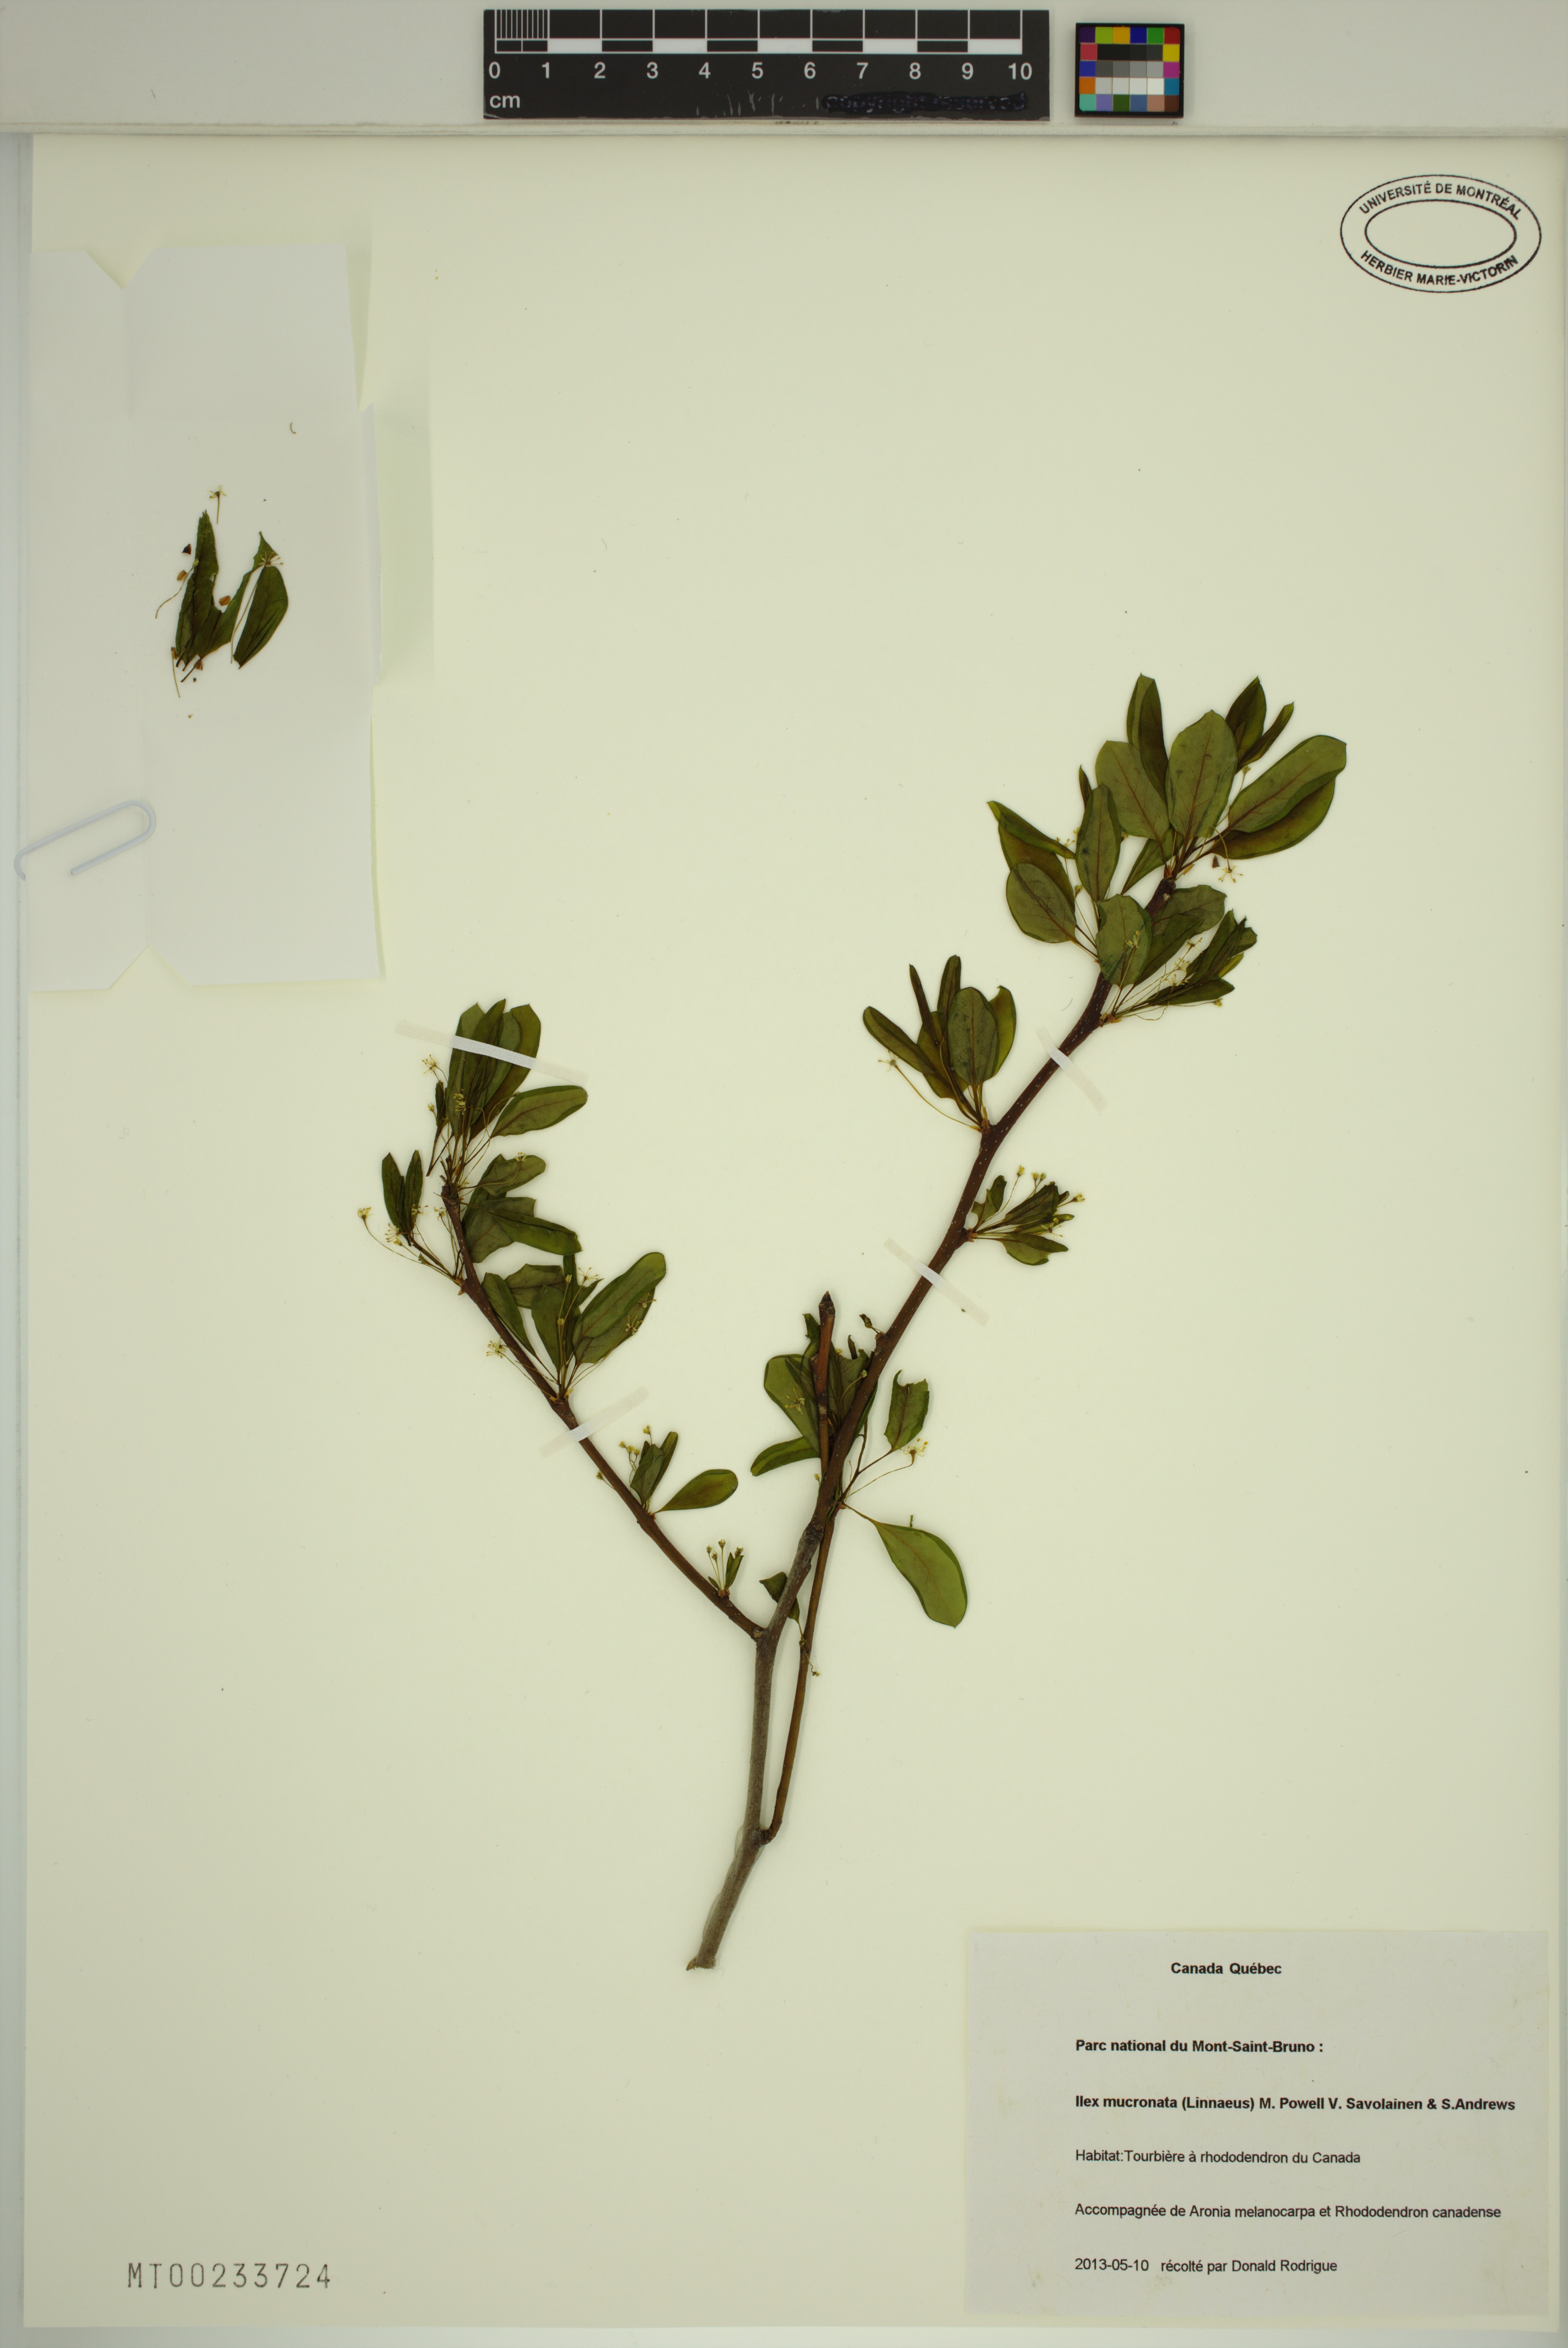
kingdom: Plantae
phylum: Tracheophyta
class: Magnoliopsida
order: Aquifoliales
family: Aquifoliaceae
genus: Ilex
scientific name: Ilex mucronata
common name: Catberry
